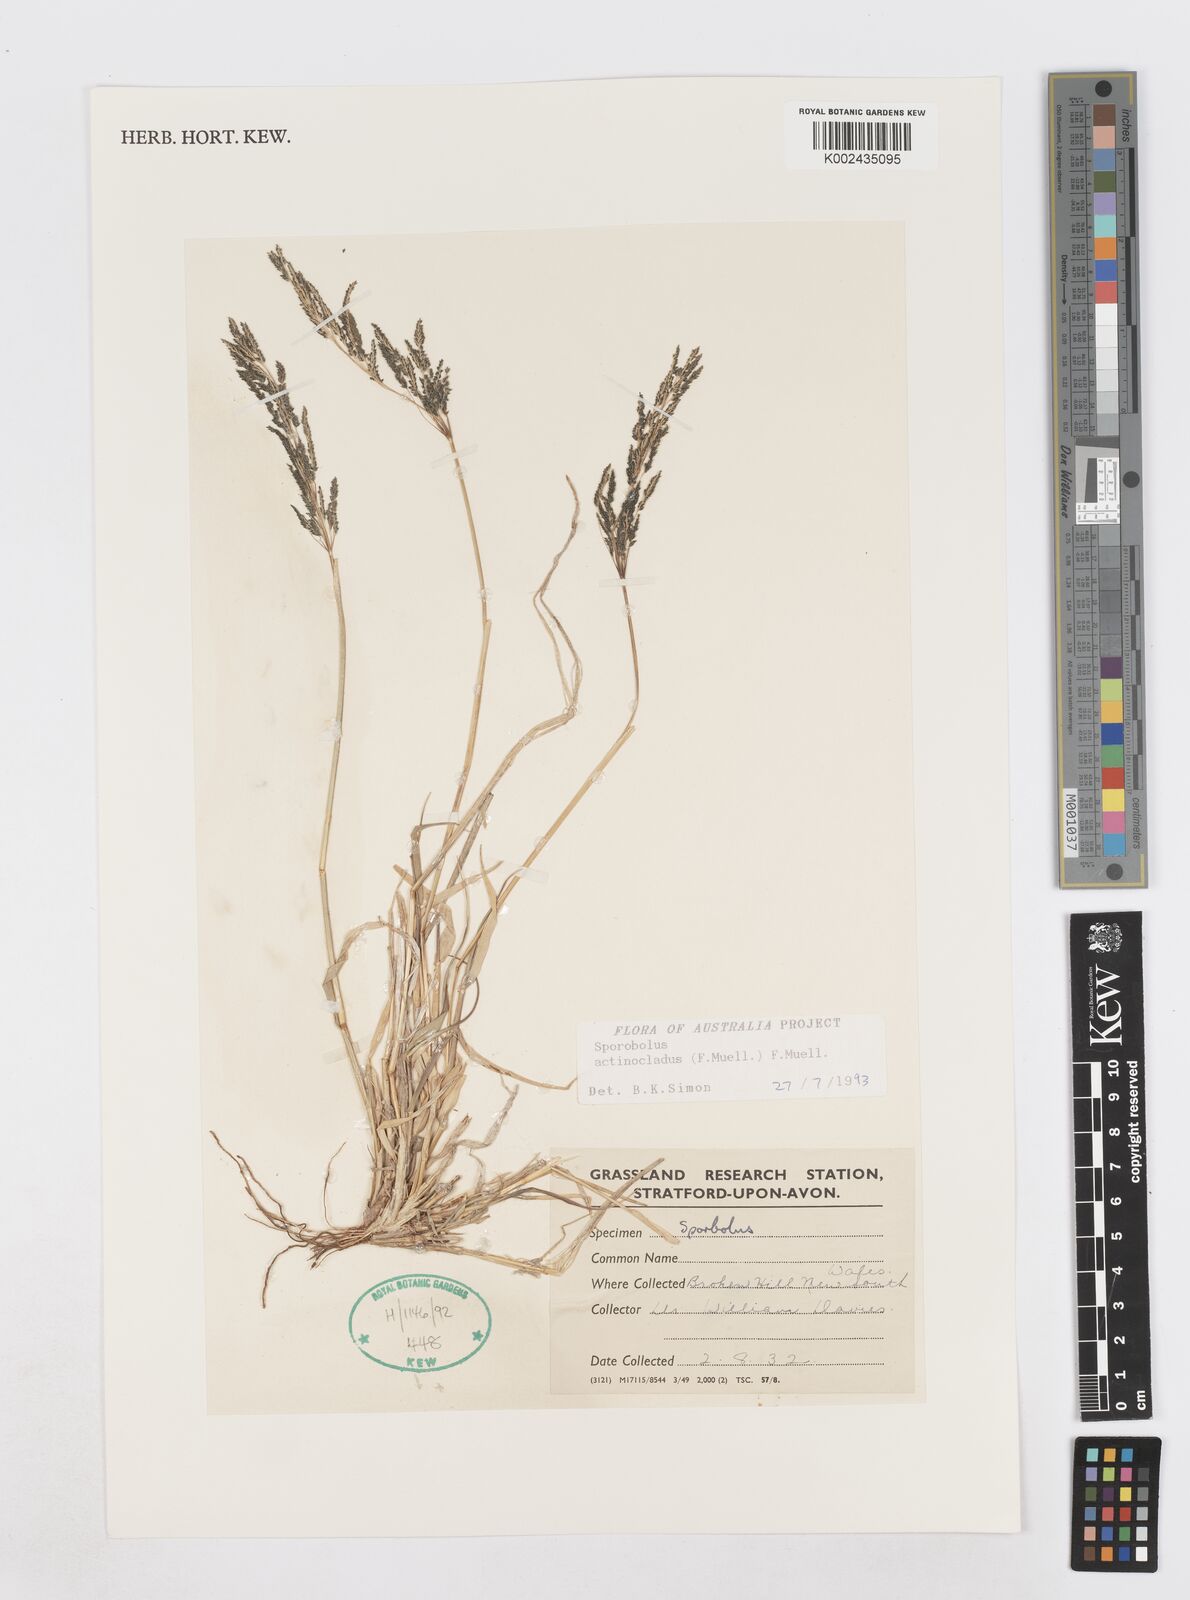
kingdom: Plantae
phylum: Tracheophyta
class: Liliopsida
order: Poales
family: Poaceae
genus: Sporobolus
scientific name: Sporobolus actinocladus
